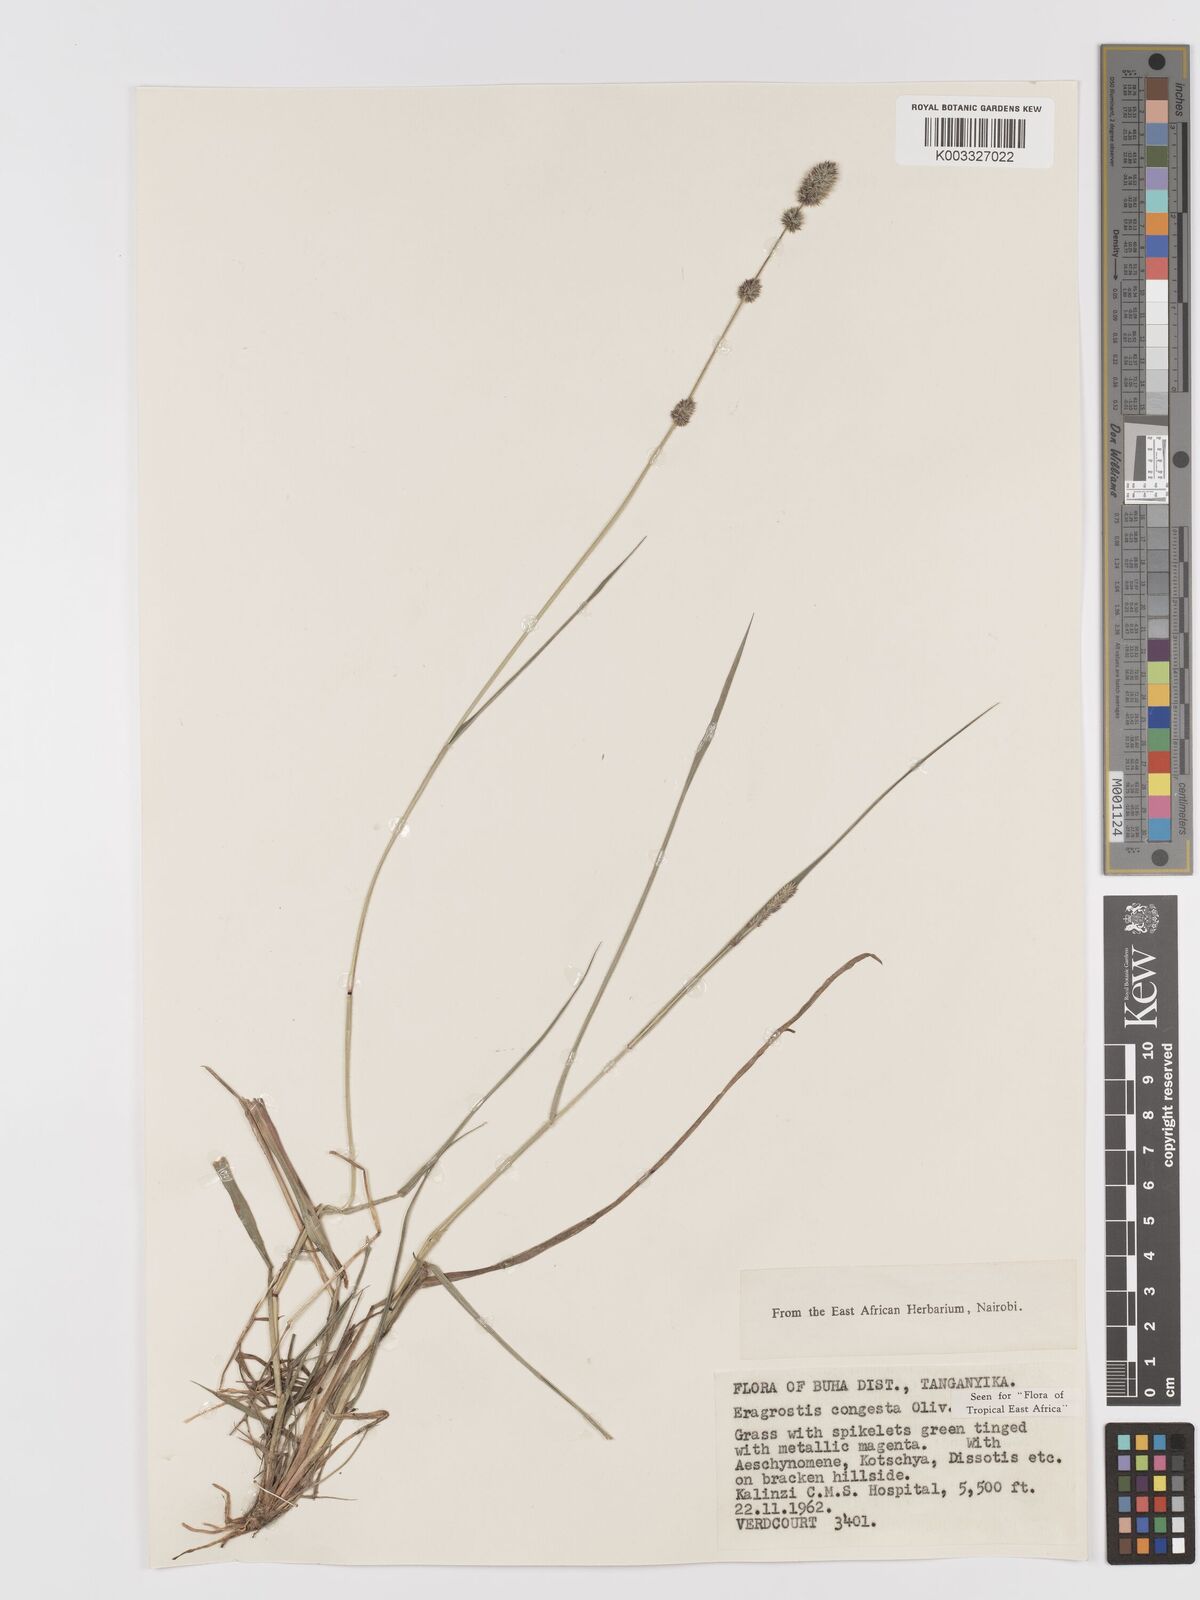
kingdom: Plantae
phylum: Tracheophyta
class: Liliopsida
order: Poales
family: Poaceae
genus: Eragrostis
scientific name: Eragrostis congesta
